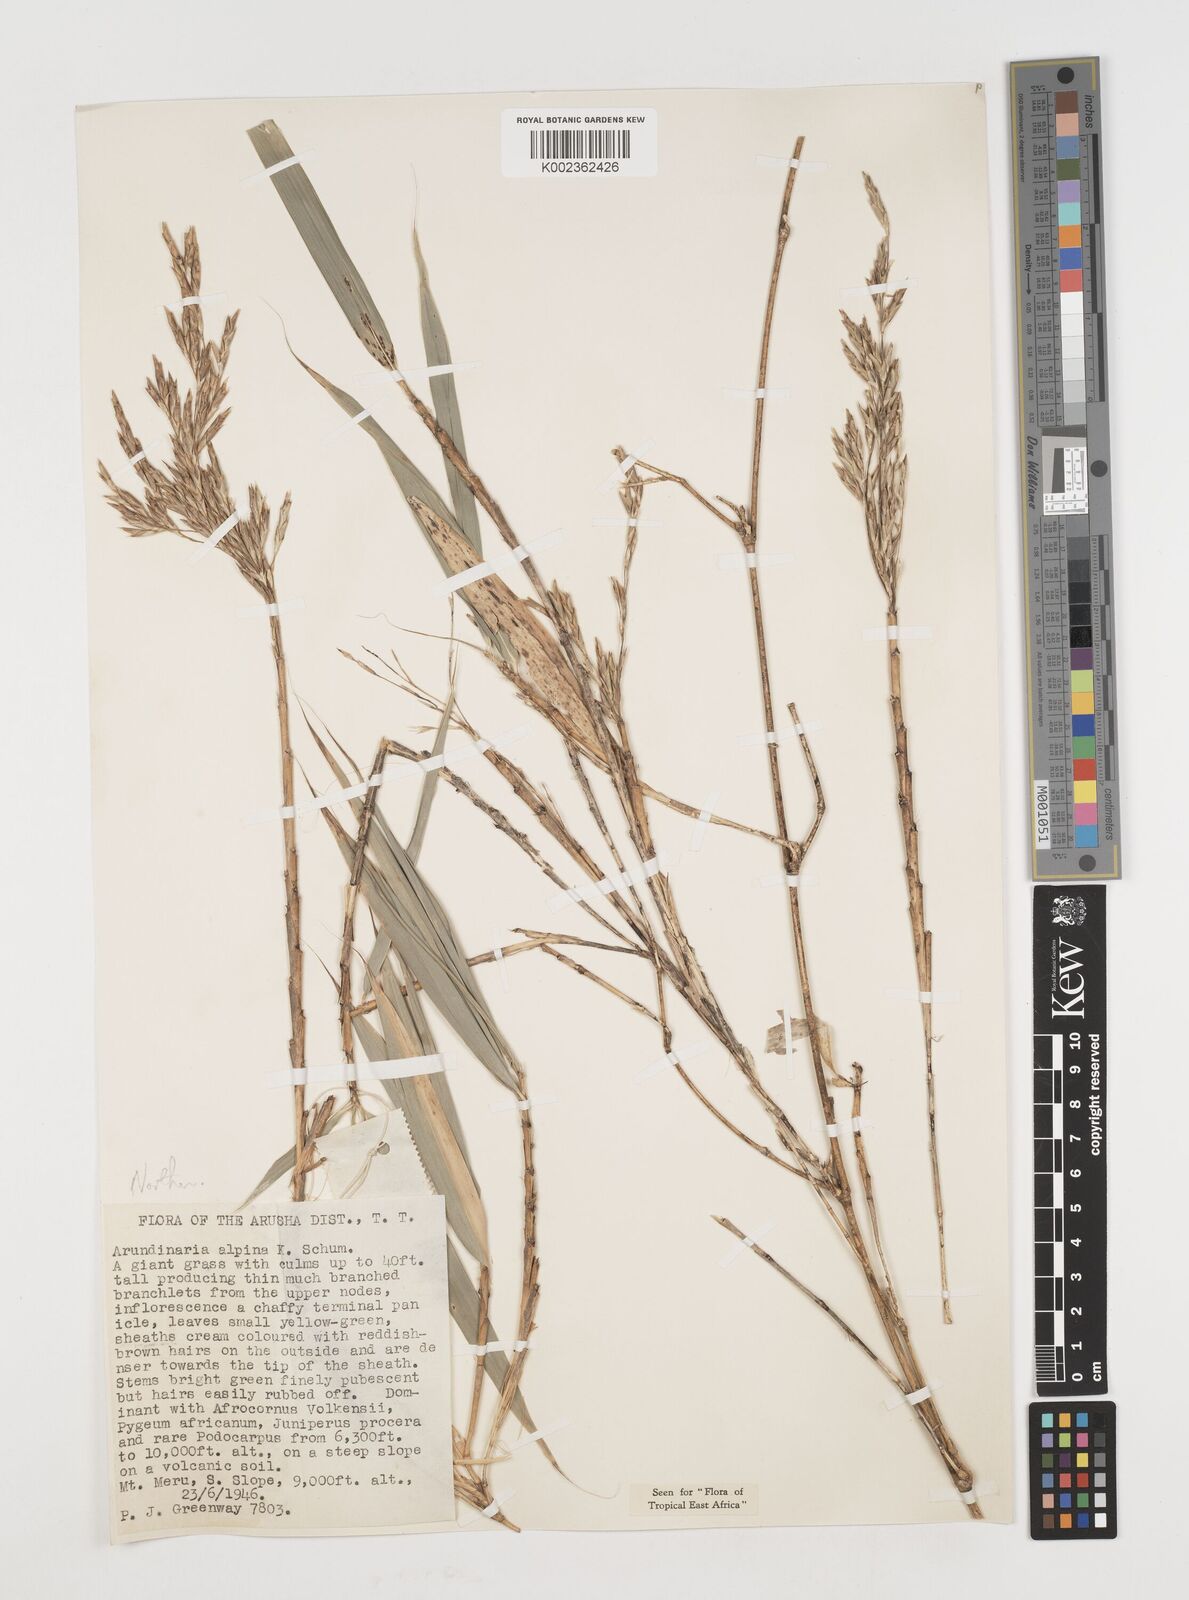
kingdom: Plantae
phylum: Tracheophyta
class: Liliopsida
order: Poales
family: Poaceae
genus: Oldeania
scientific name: Oldeania alpina
